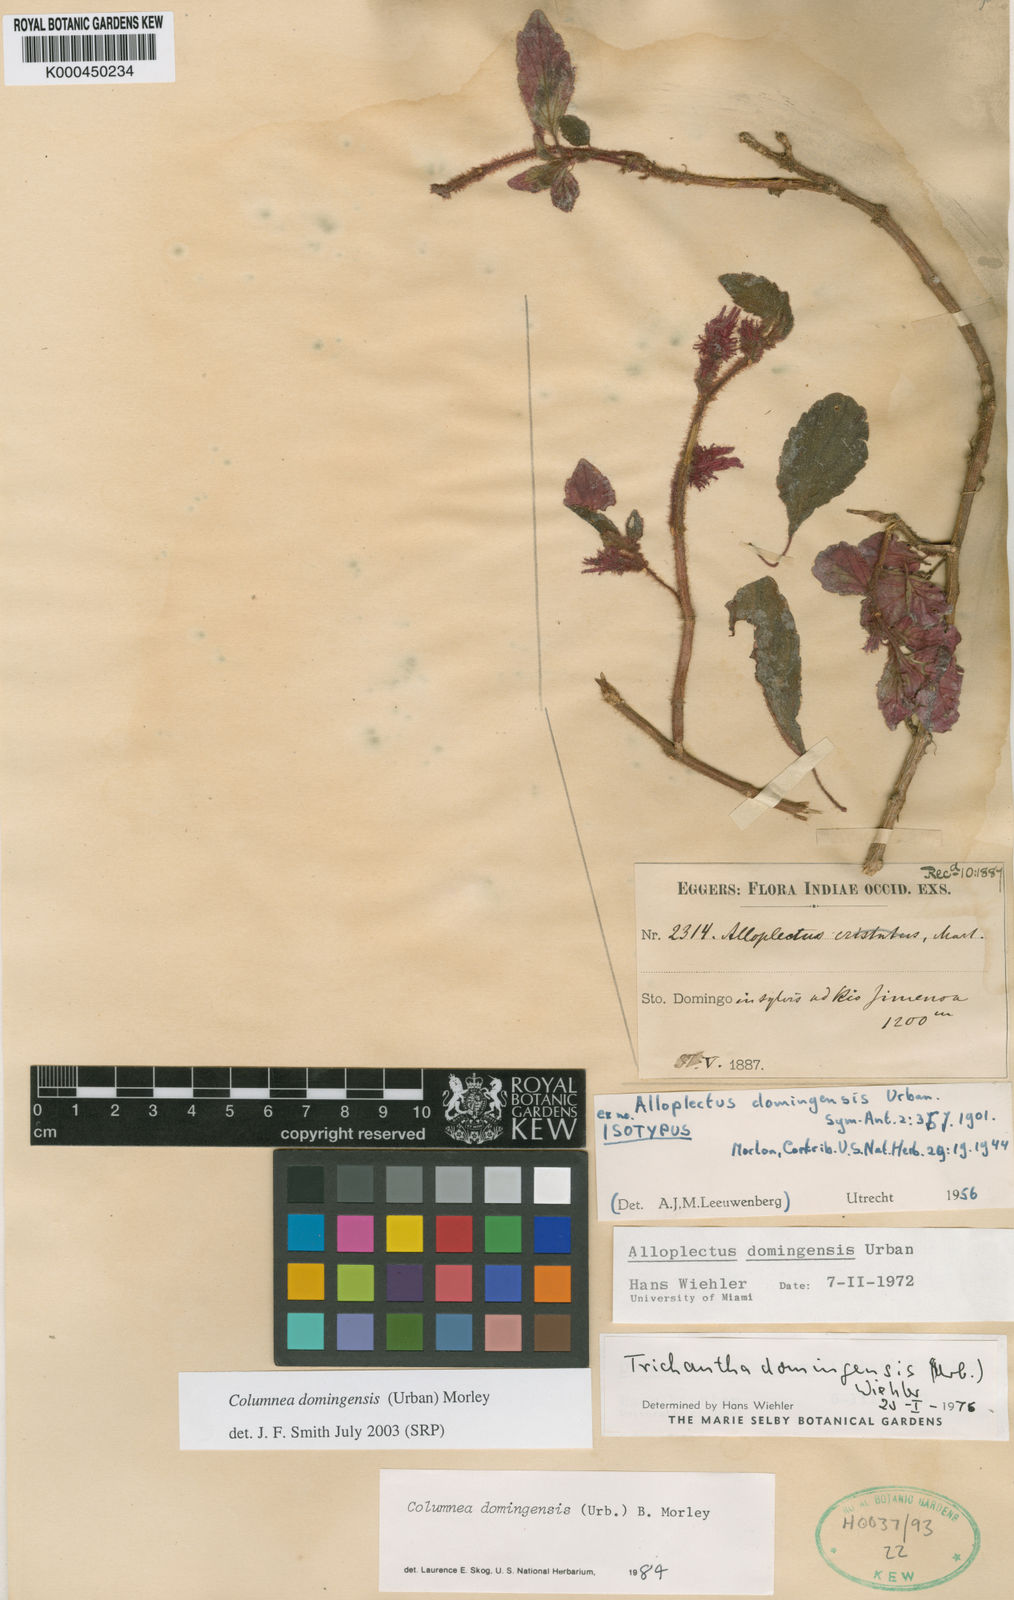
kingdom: Plantae
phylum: Tracheophyta
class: Magnoliopsida
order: Lamiales
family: Gesneriaceae
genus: Columnea
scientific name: Columnea domingensis
